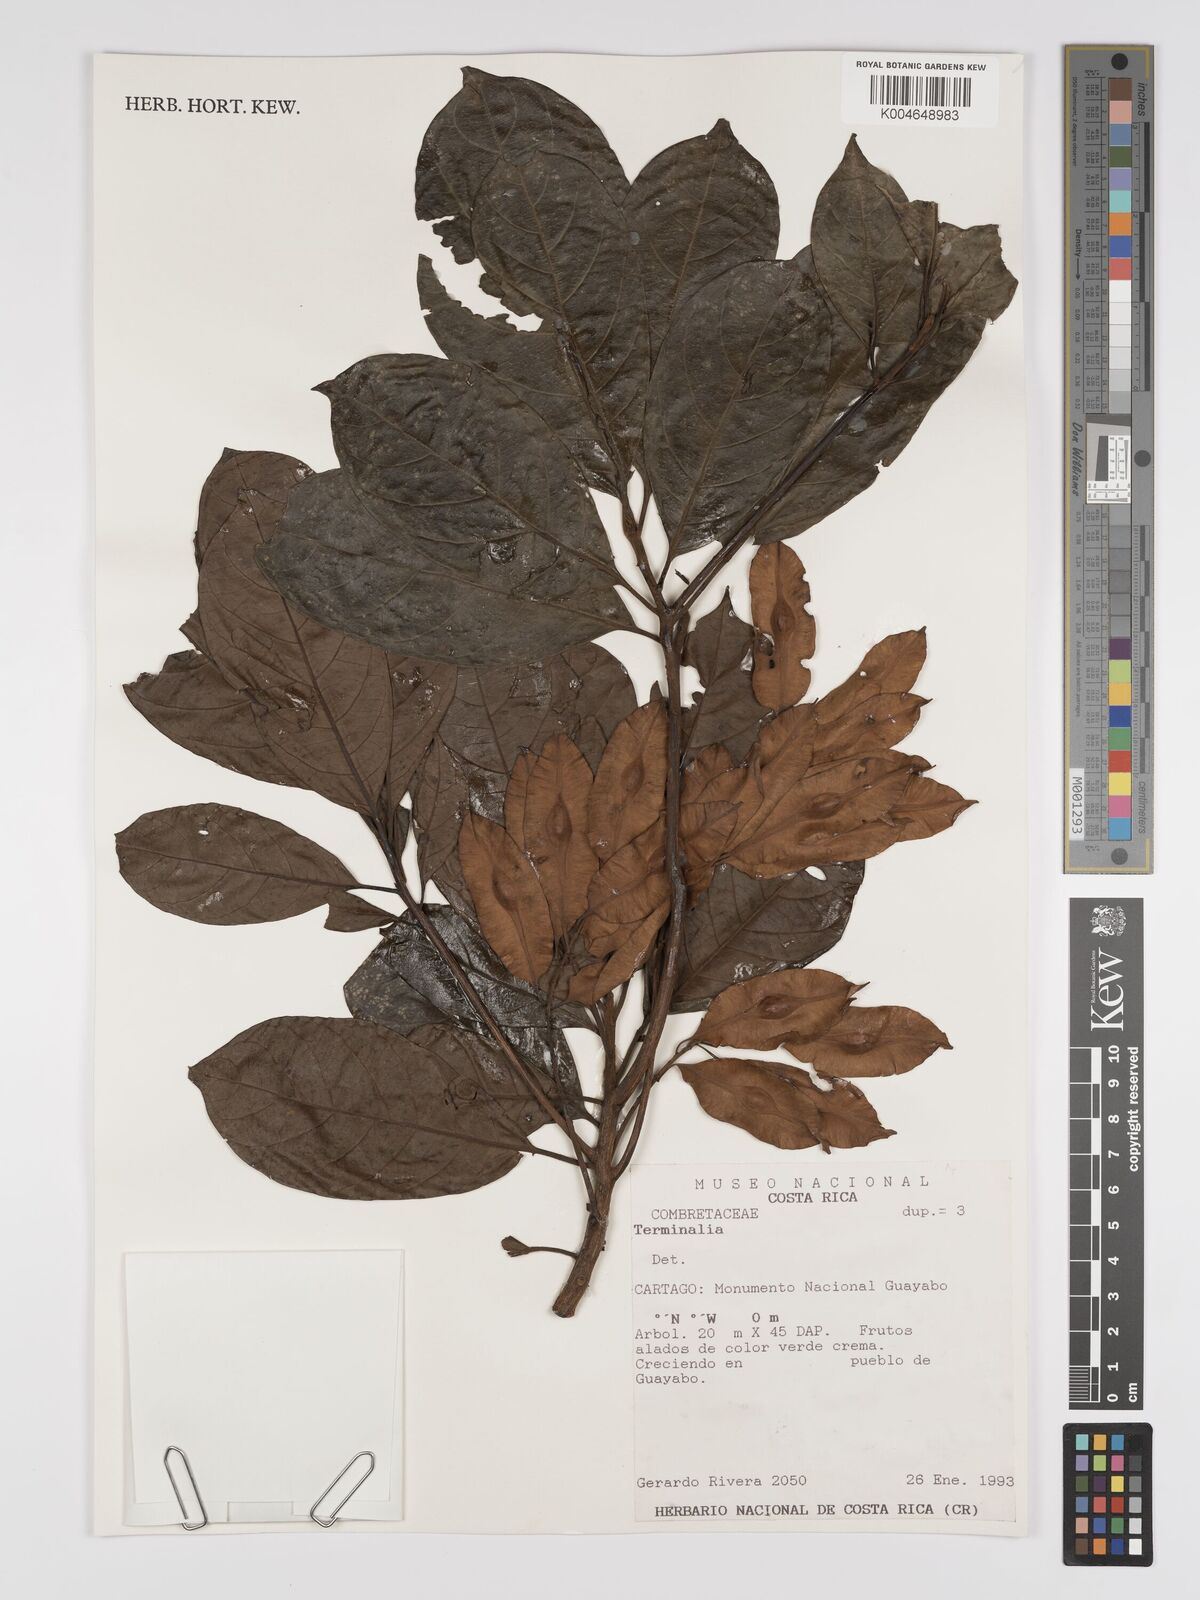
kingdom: Plantae
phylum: Tracheophyta
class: Magnoliopsida
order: Myrtales
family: Combretaceae
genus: Terminalia
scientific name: Terminalia
